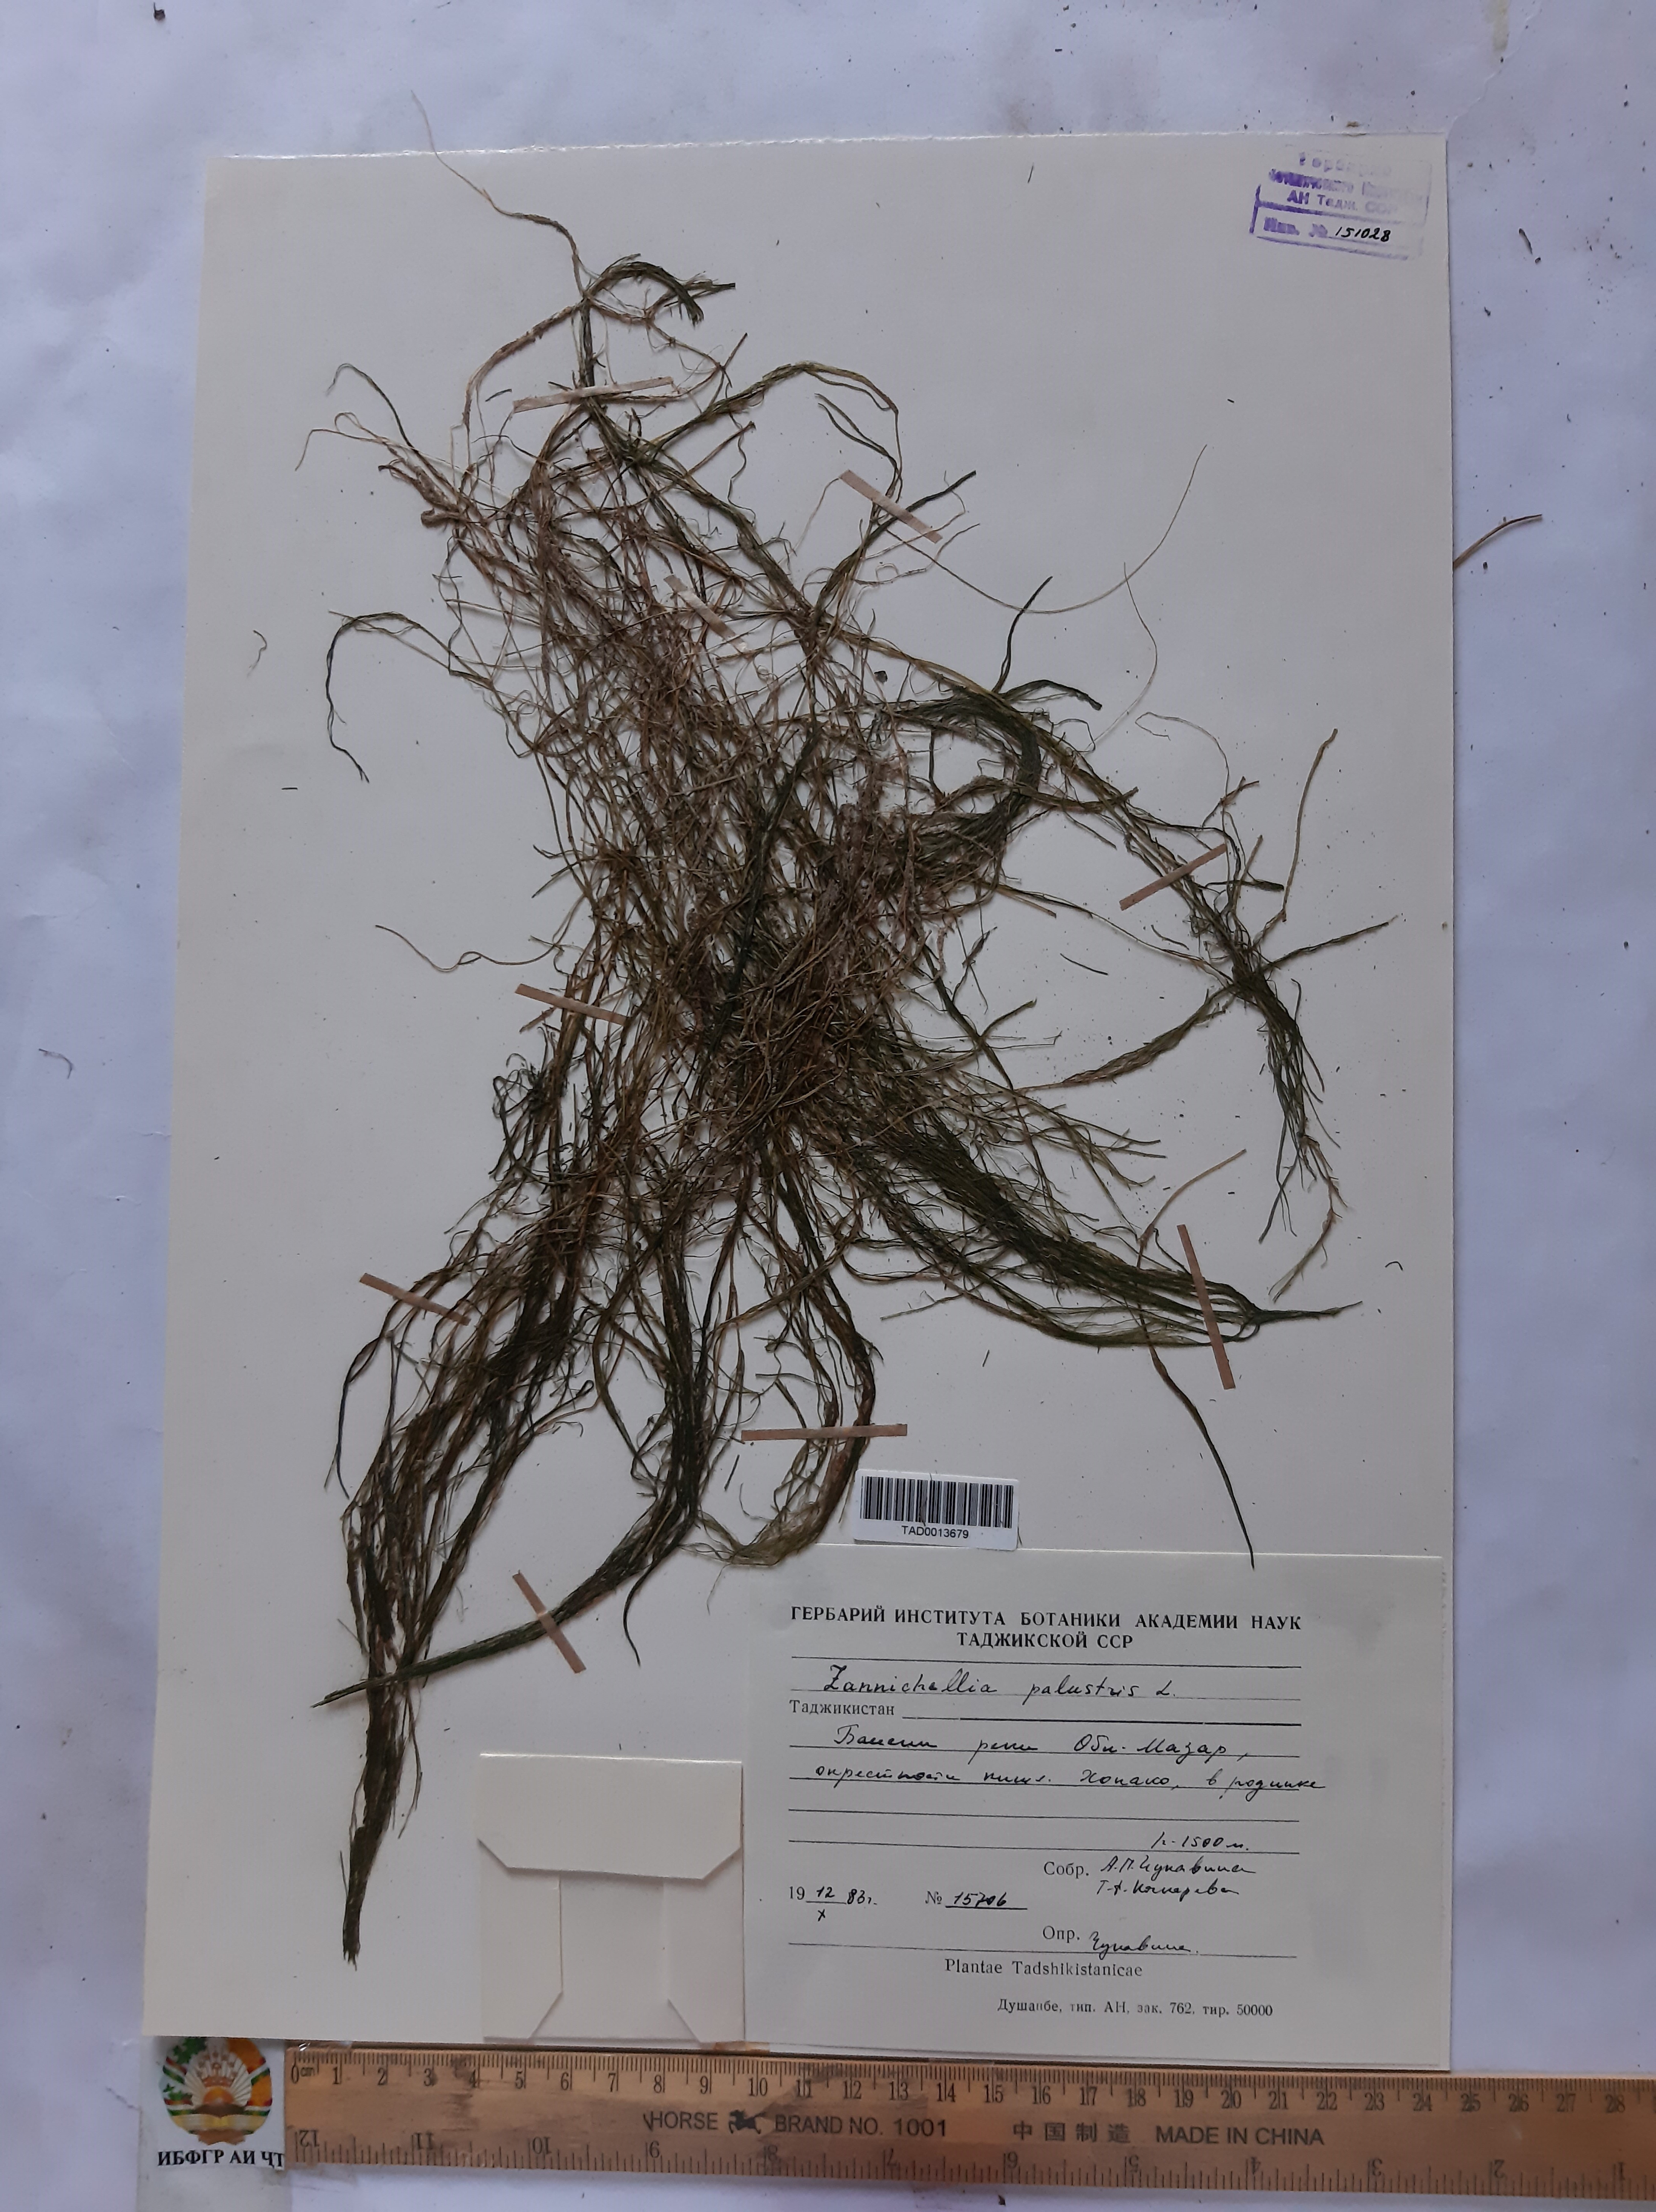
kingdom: Plantae
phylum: Tracheophyta
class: Liliopsida
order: Alismatales
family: Potamogetonaceae
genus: Zannichellia
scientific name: Zannichellia palustris
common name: Horned pondweed
